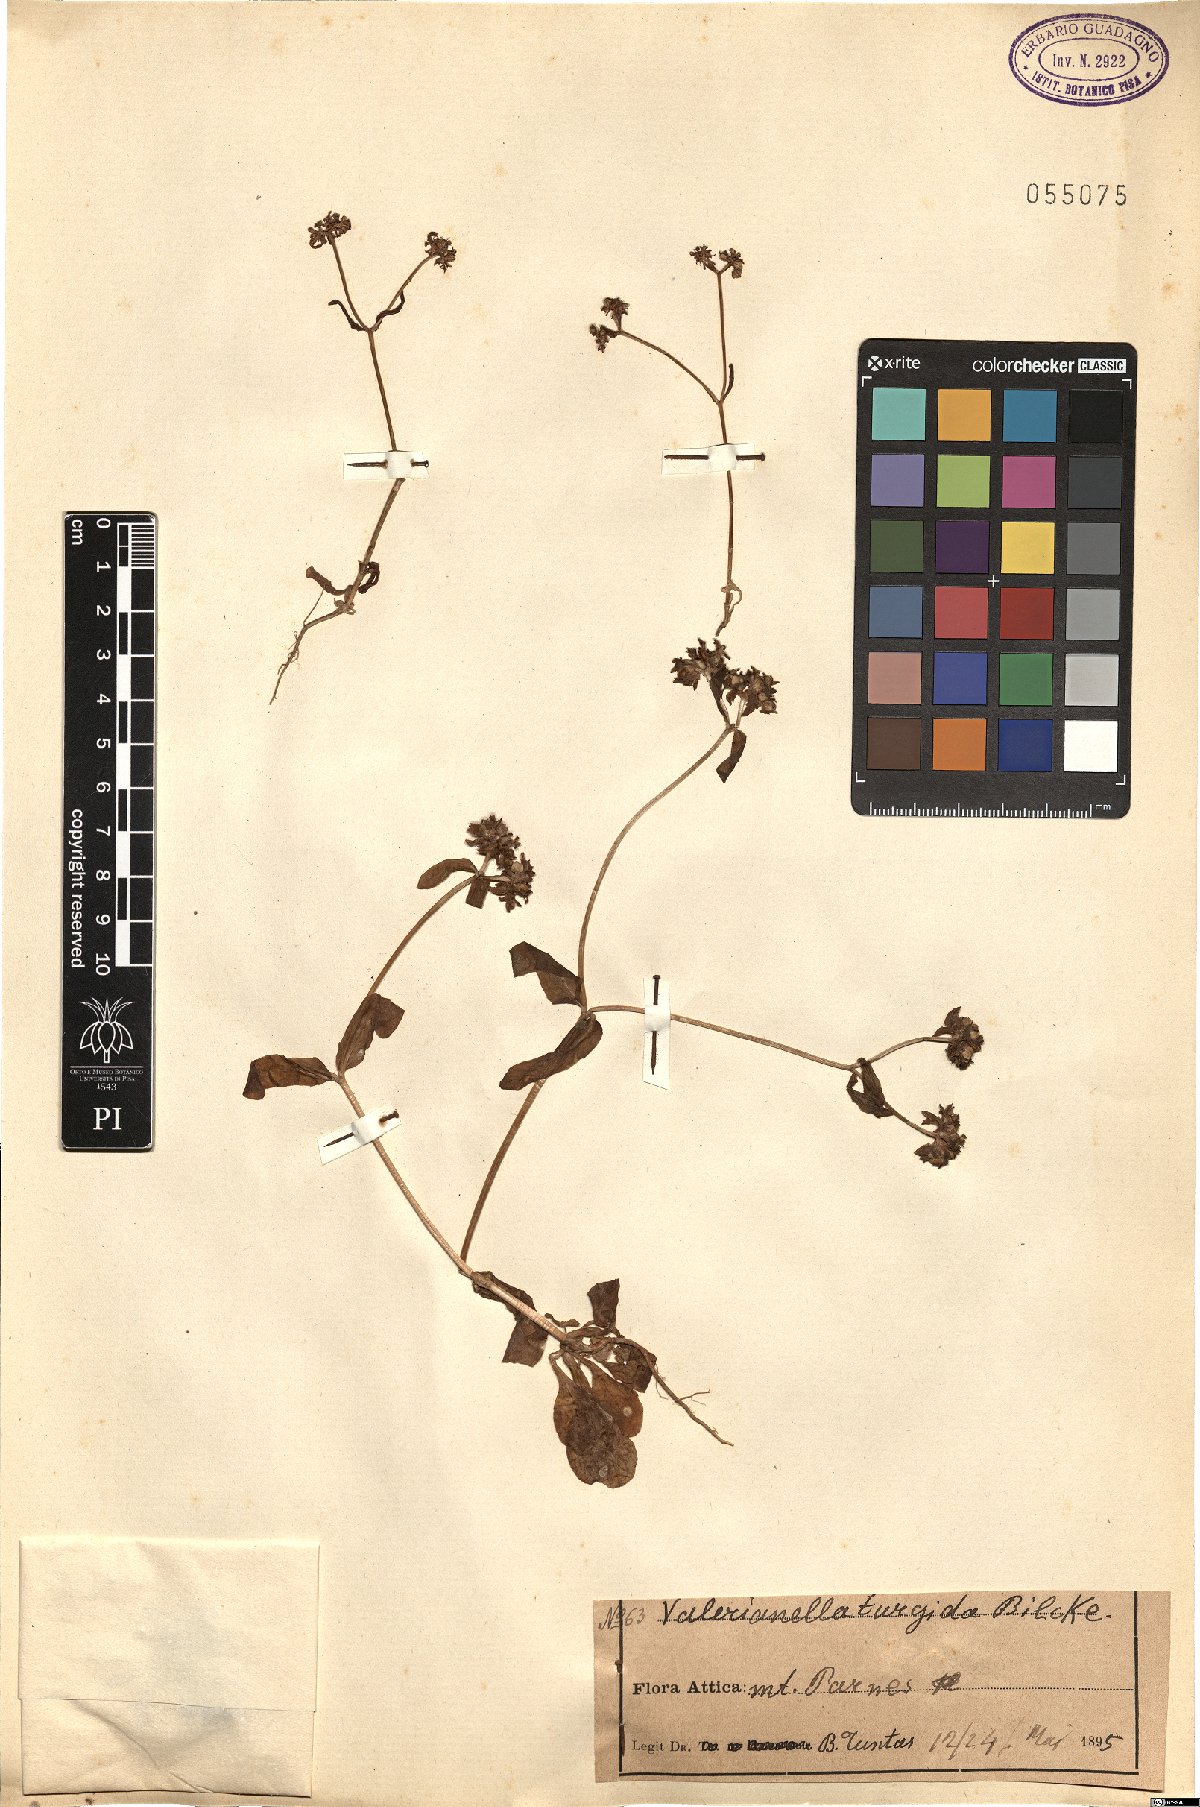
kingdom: Plantae
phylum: Tracheophyta
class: Magnoliopsida
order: Dipsacales
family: Caprifoliaceae
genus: Valerianella
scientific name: Valerianella turgida
